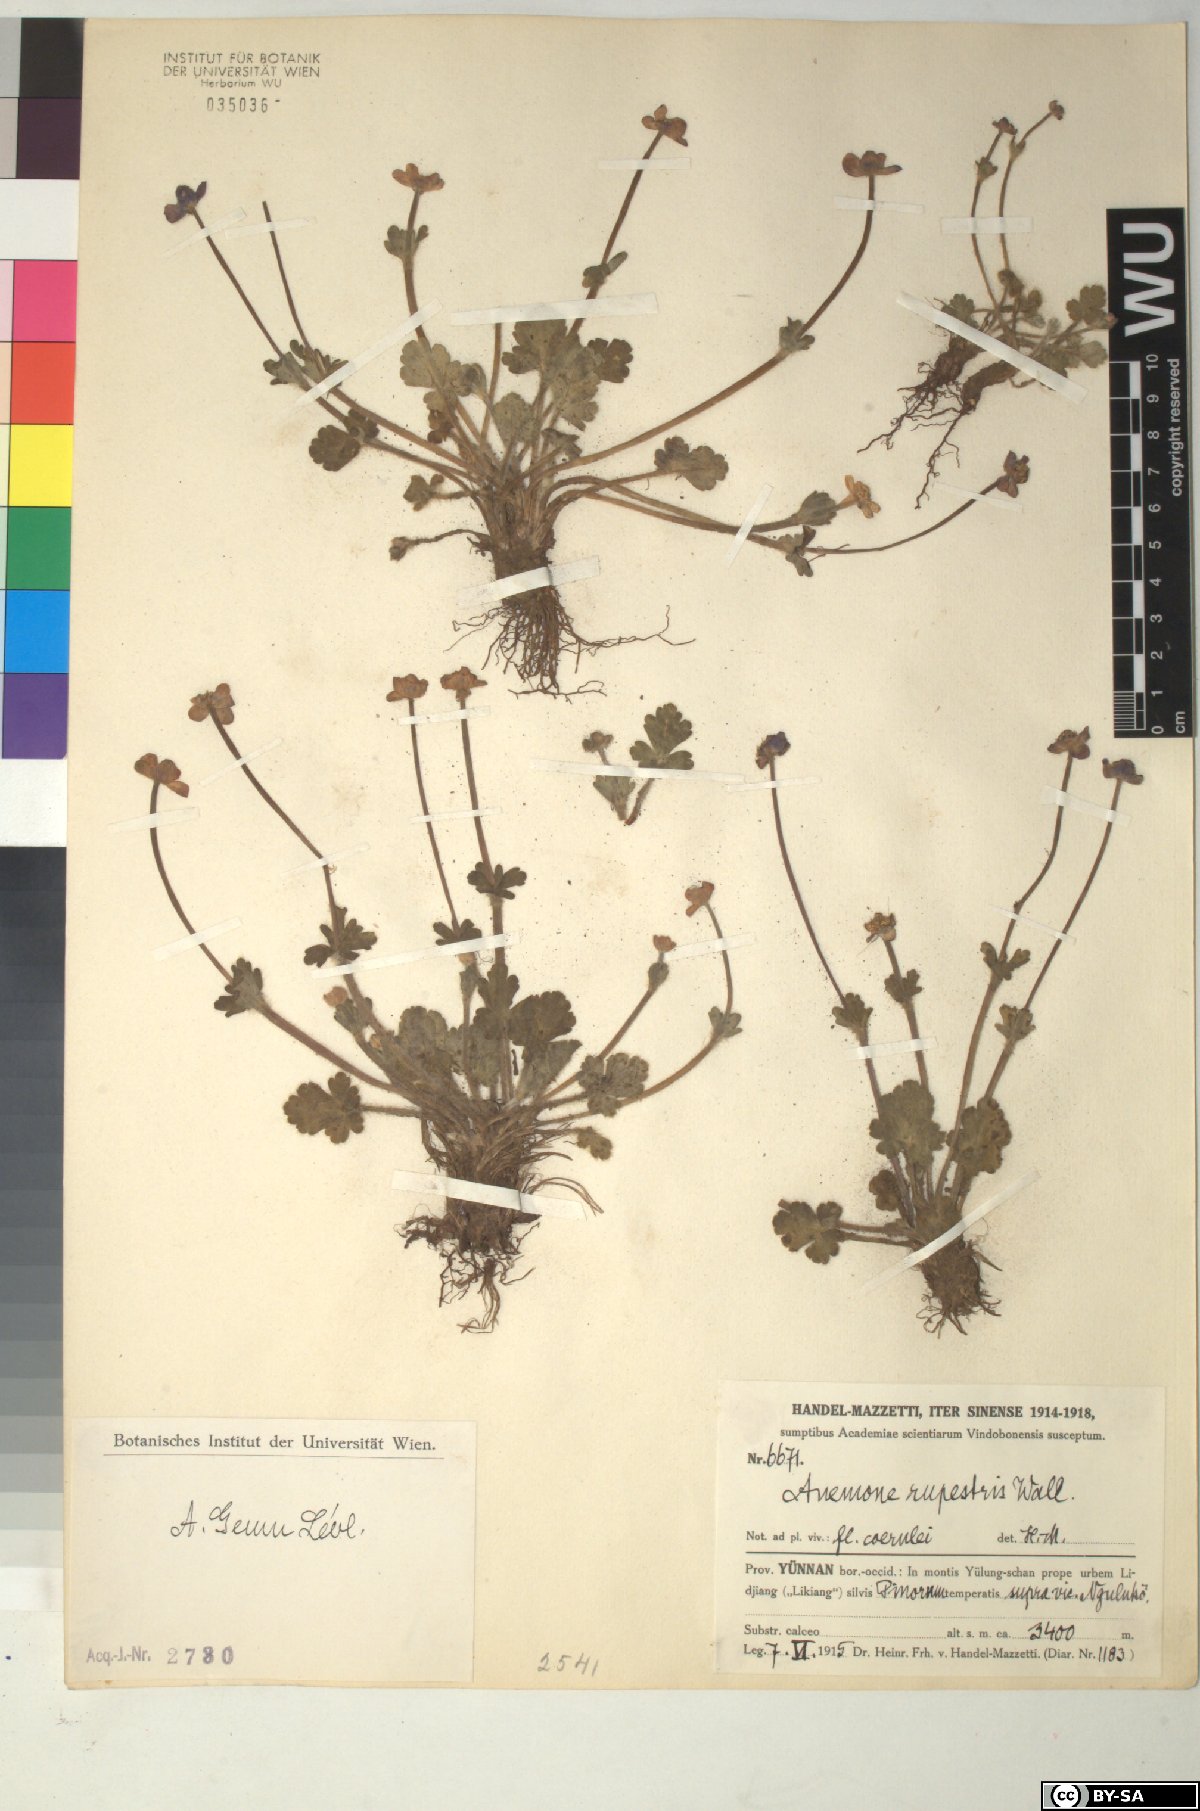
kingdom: Plantae
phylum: Tracheophyta
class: Magnoliopsida
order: Ranunculales
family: Ranunculaceae
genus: Anemonastrum
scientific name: Anemonastrum geum
